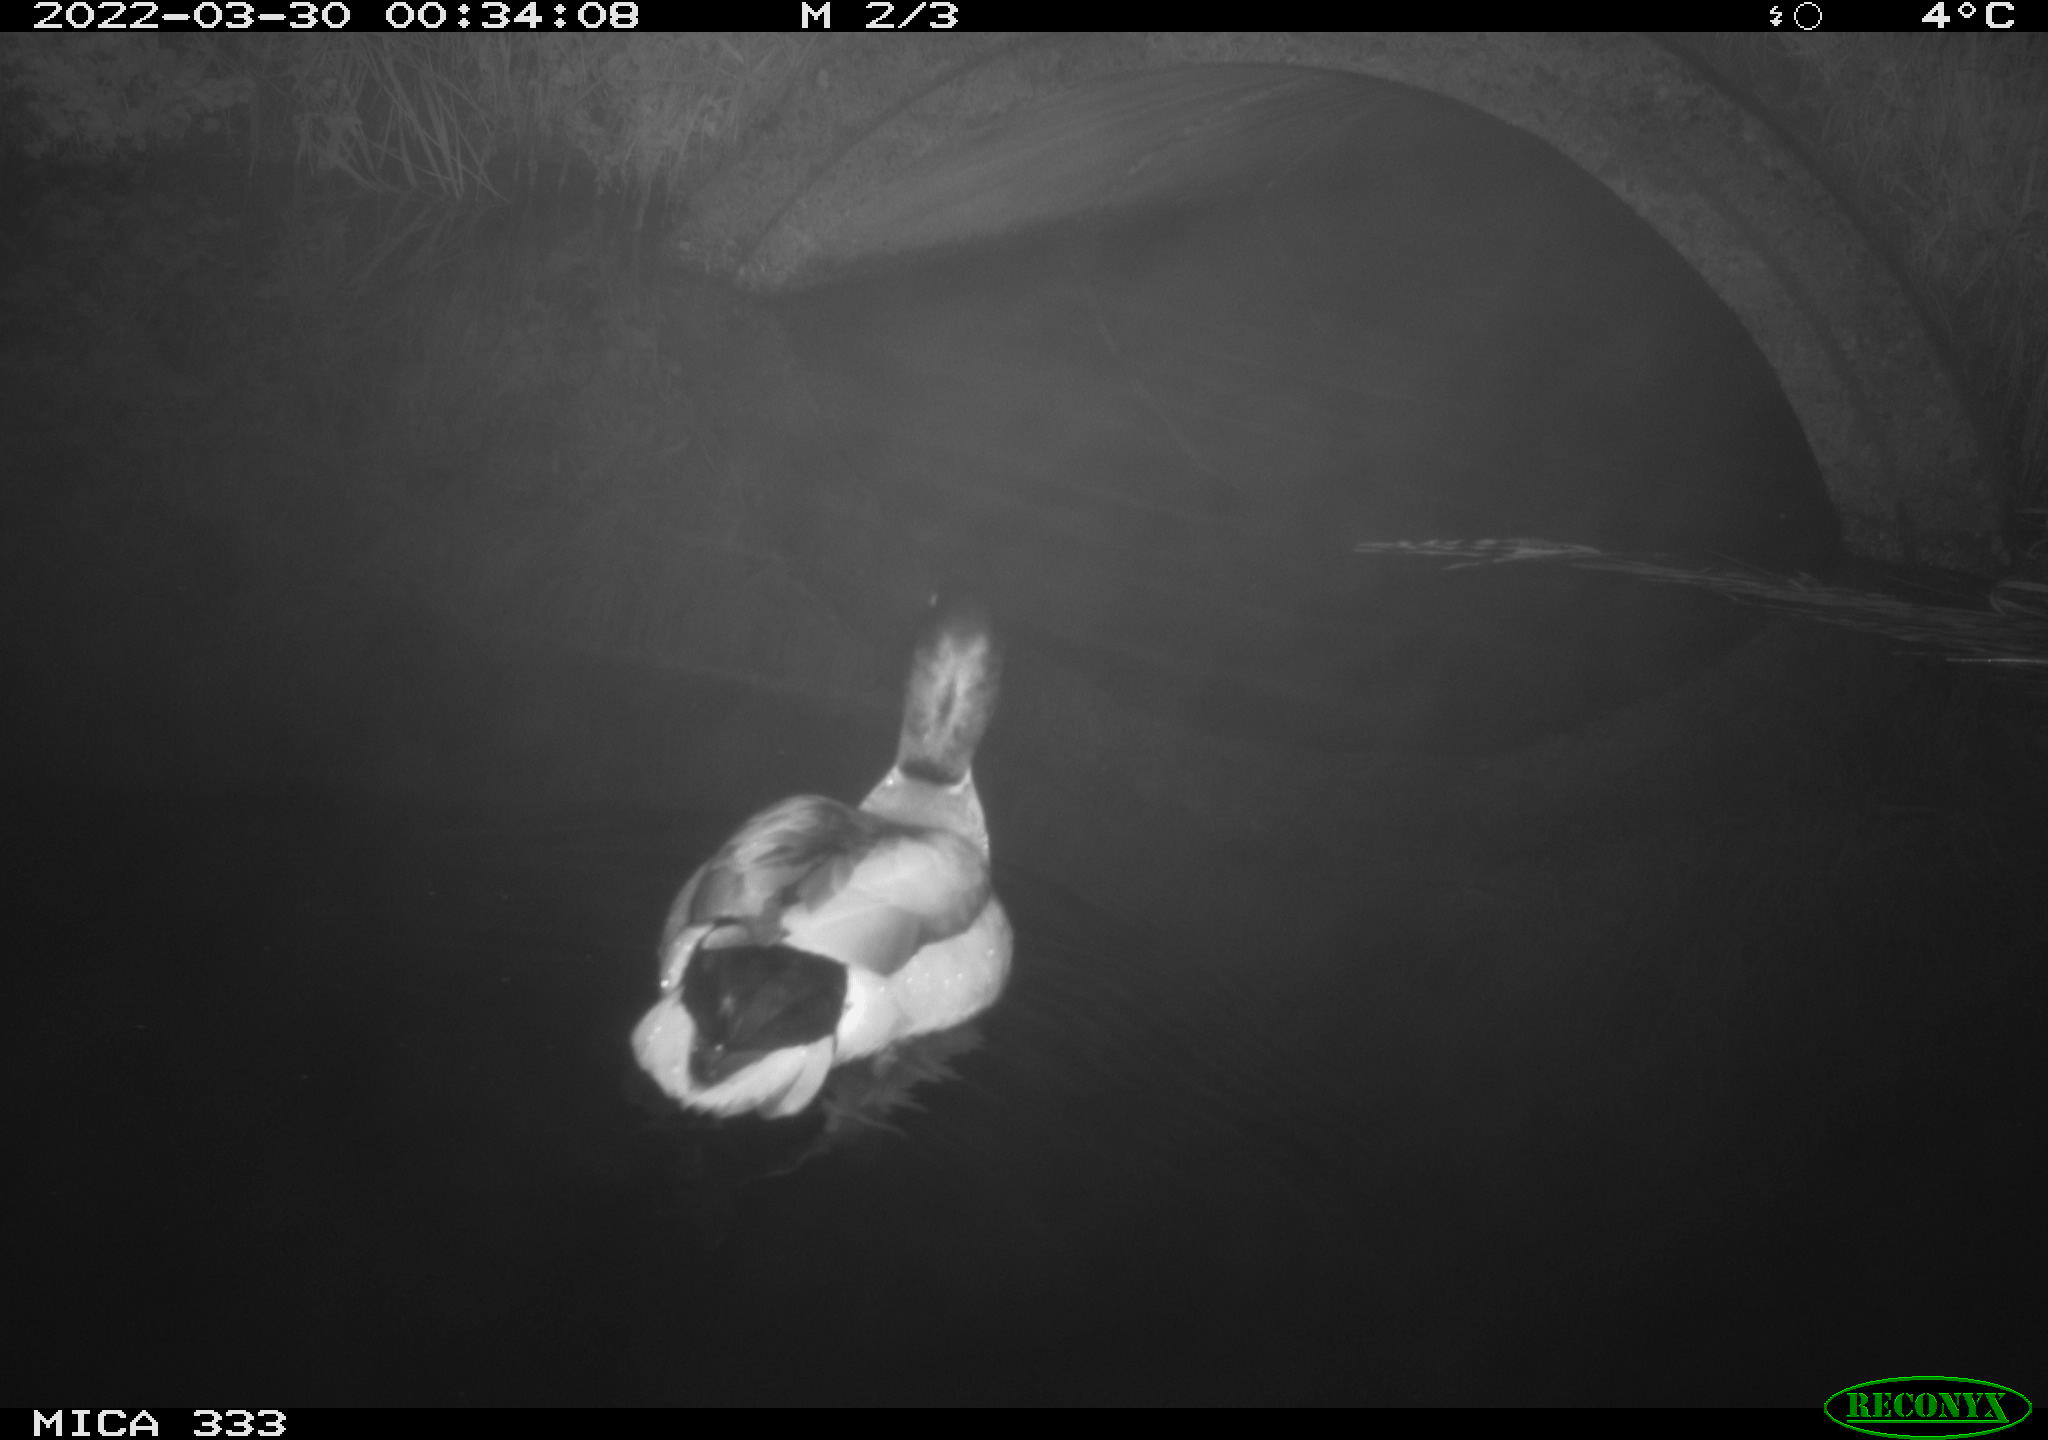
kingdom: Animalia
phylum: Chordata
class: Aves
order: Anseriformes
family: Anatidae
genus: Anas
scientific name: Anas platyrhynchos
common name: Mallard
